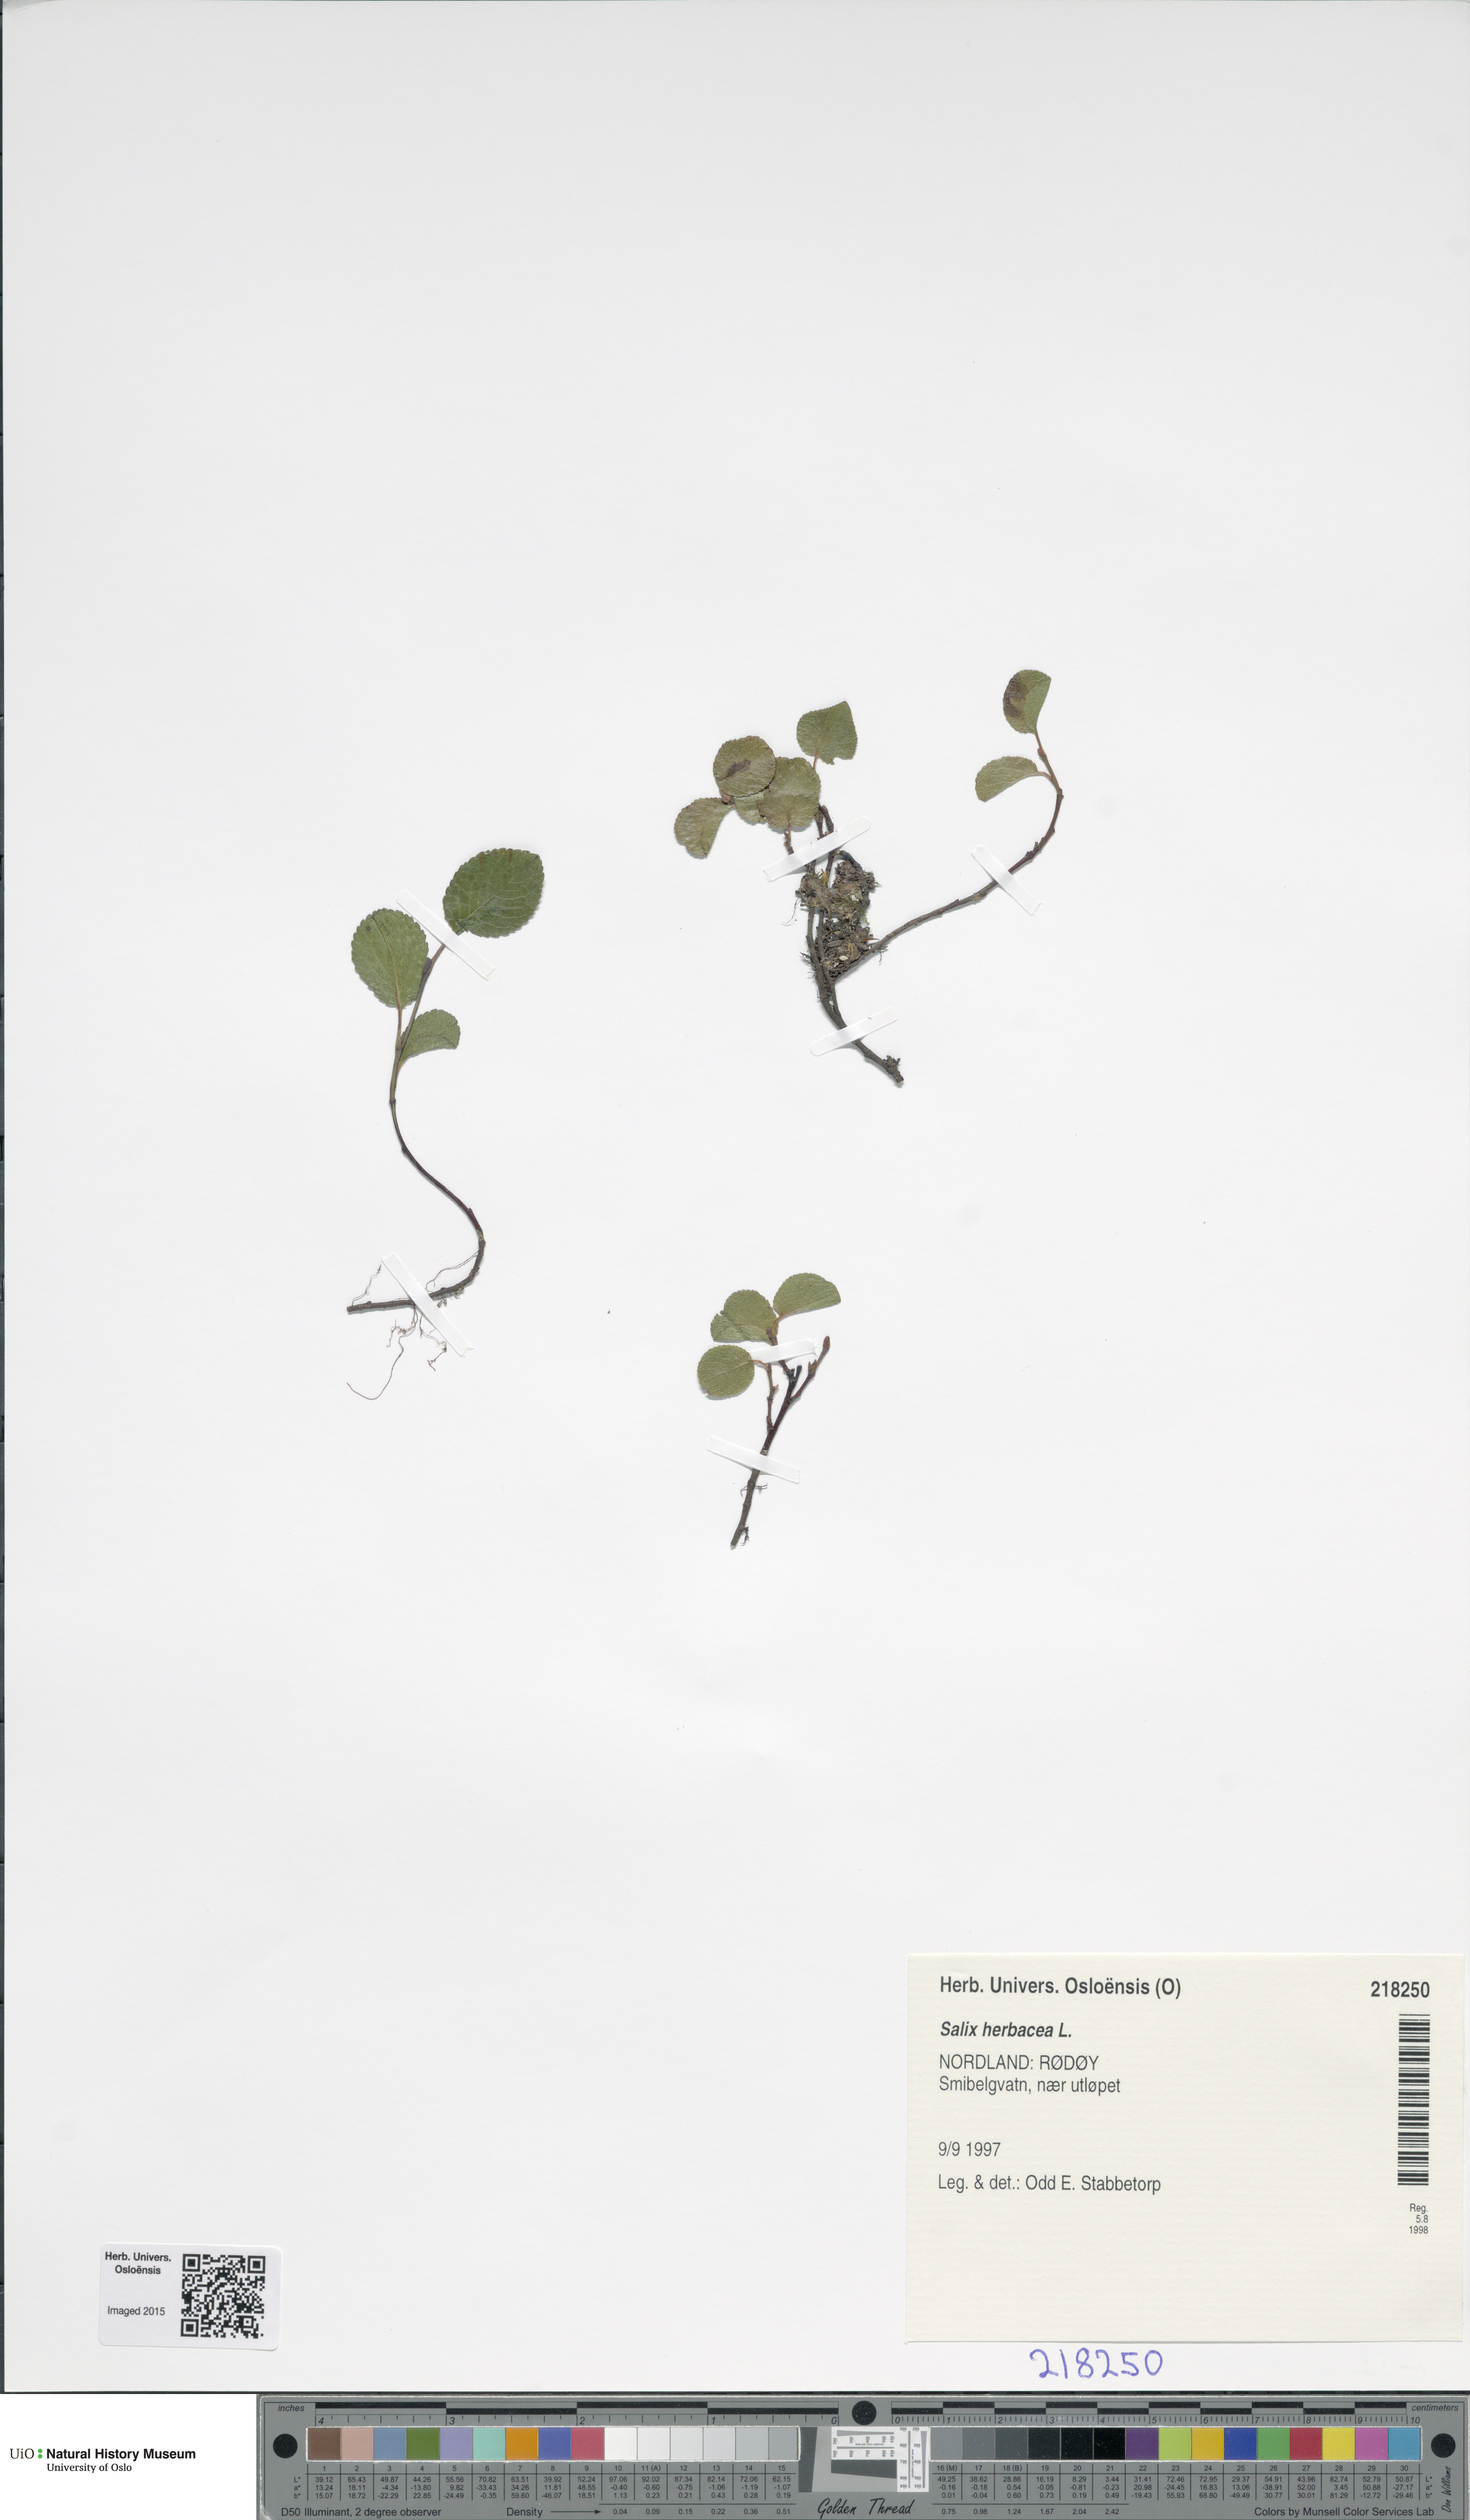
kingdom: Plantae
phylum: Tracheophyta
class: Magnoliopsida
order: Malpighiales
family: Salicaceae
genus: Salix
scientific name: Salix herbacea
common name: Dwarf willow
